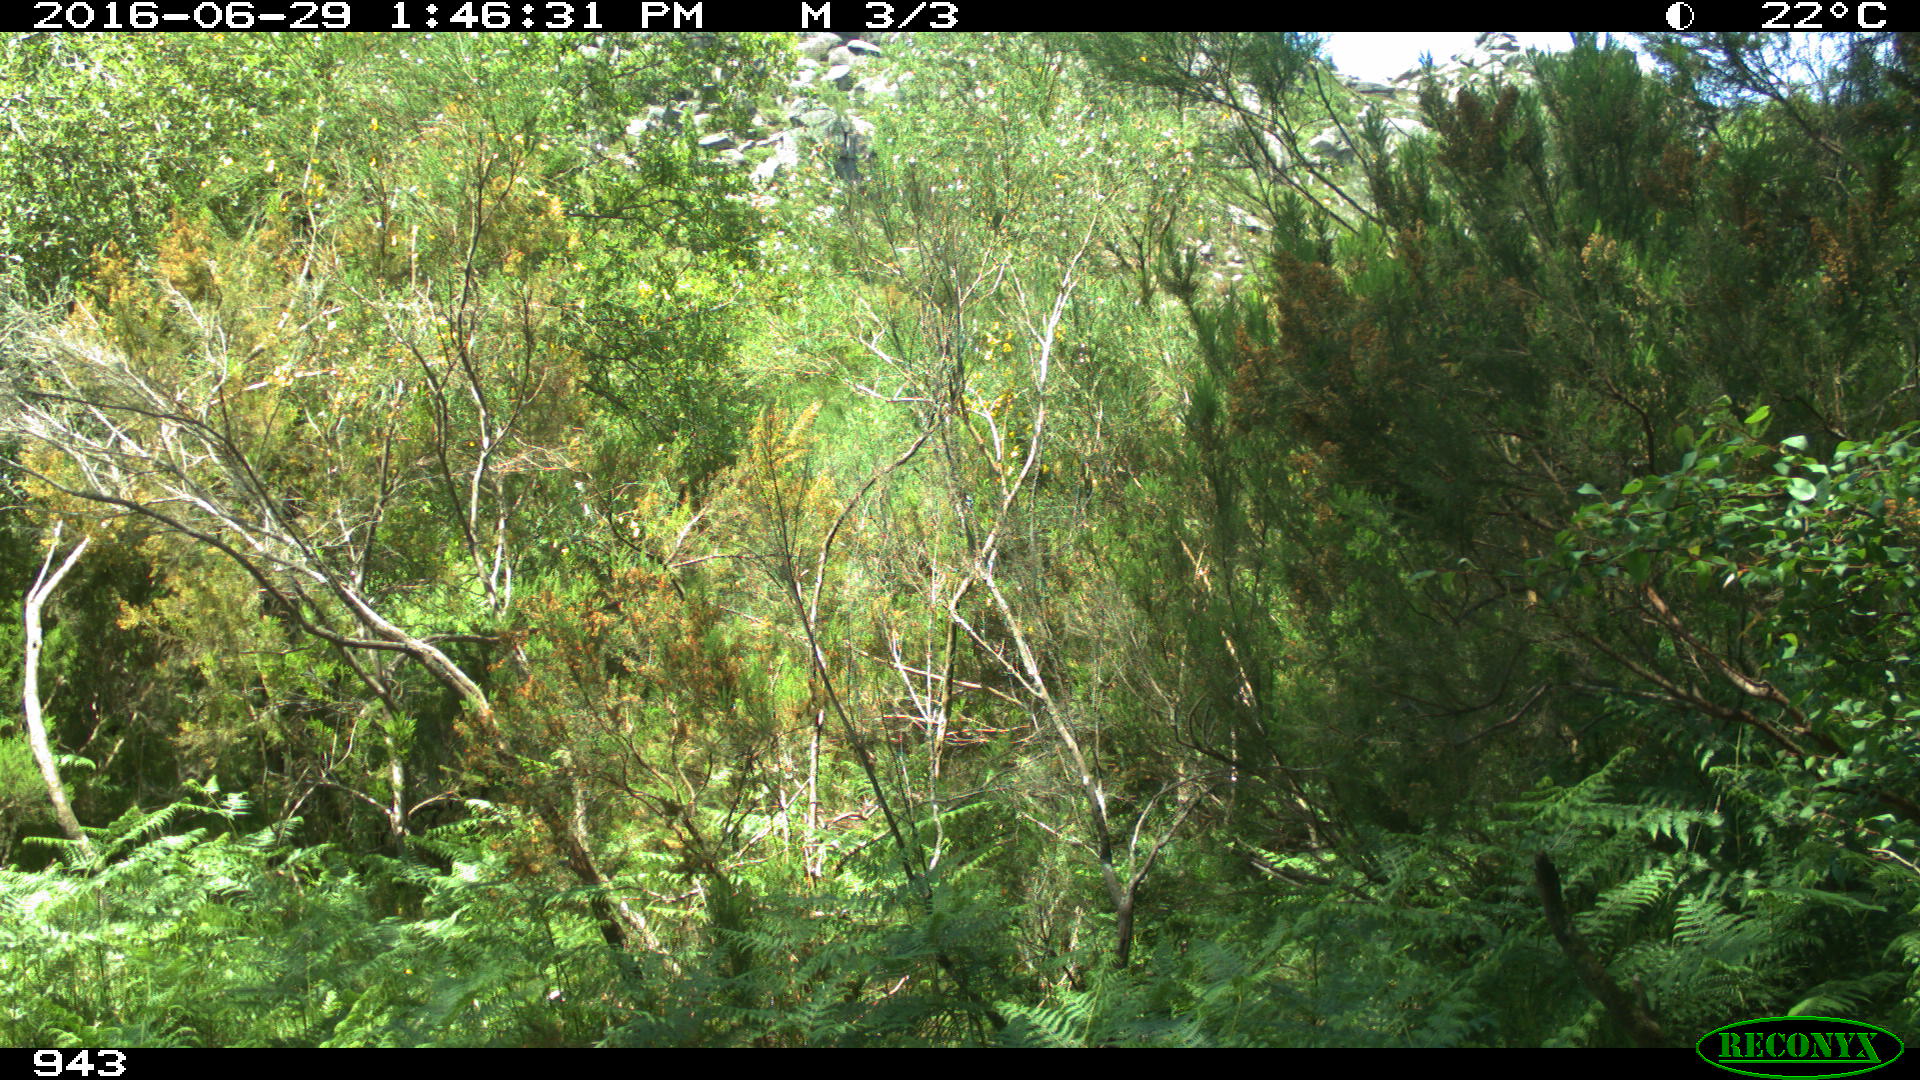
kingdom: Animalia
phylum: Chordata
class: Mammalia
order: Artiodactyla
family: Cervidae
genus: Capreolus
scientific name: Capreolus capreolus
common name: Western roe deer
